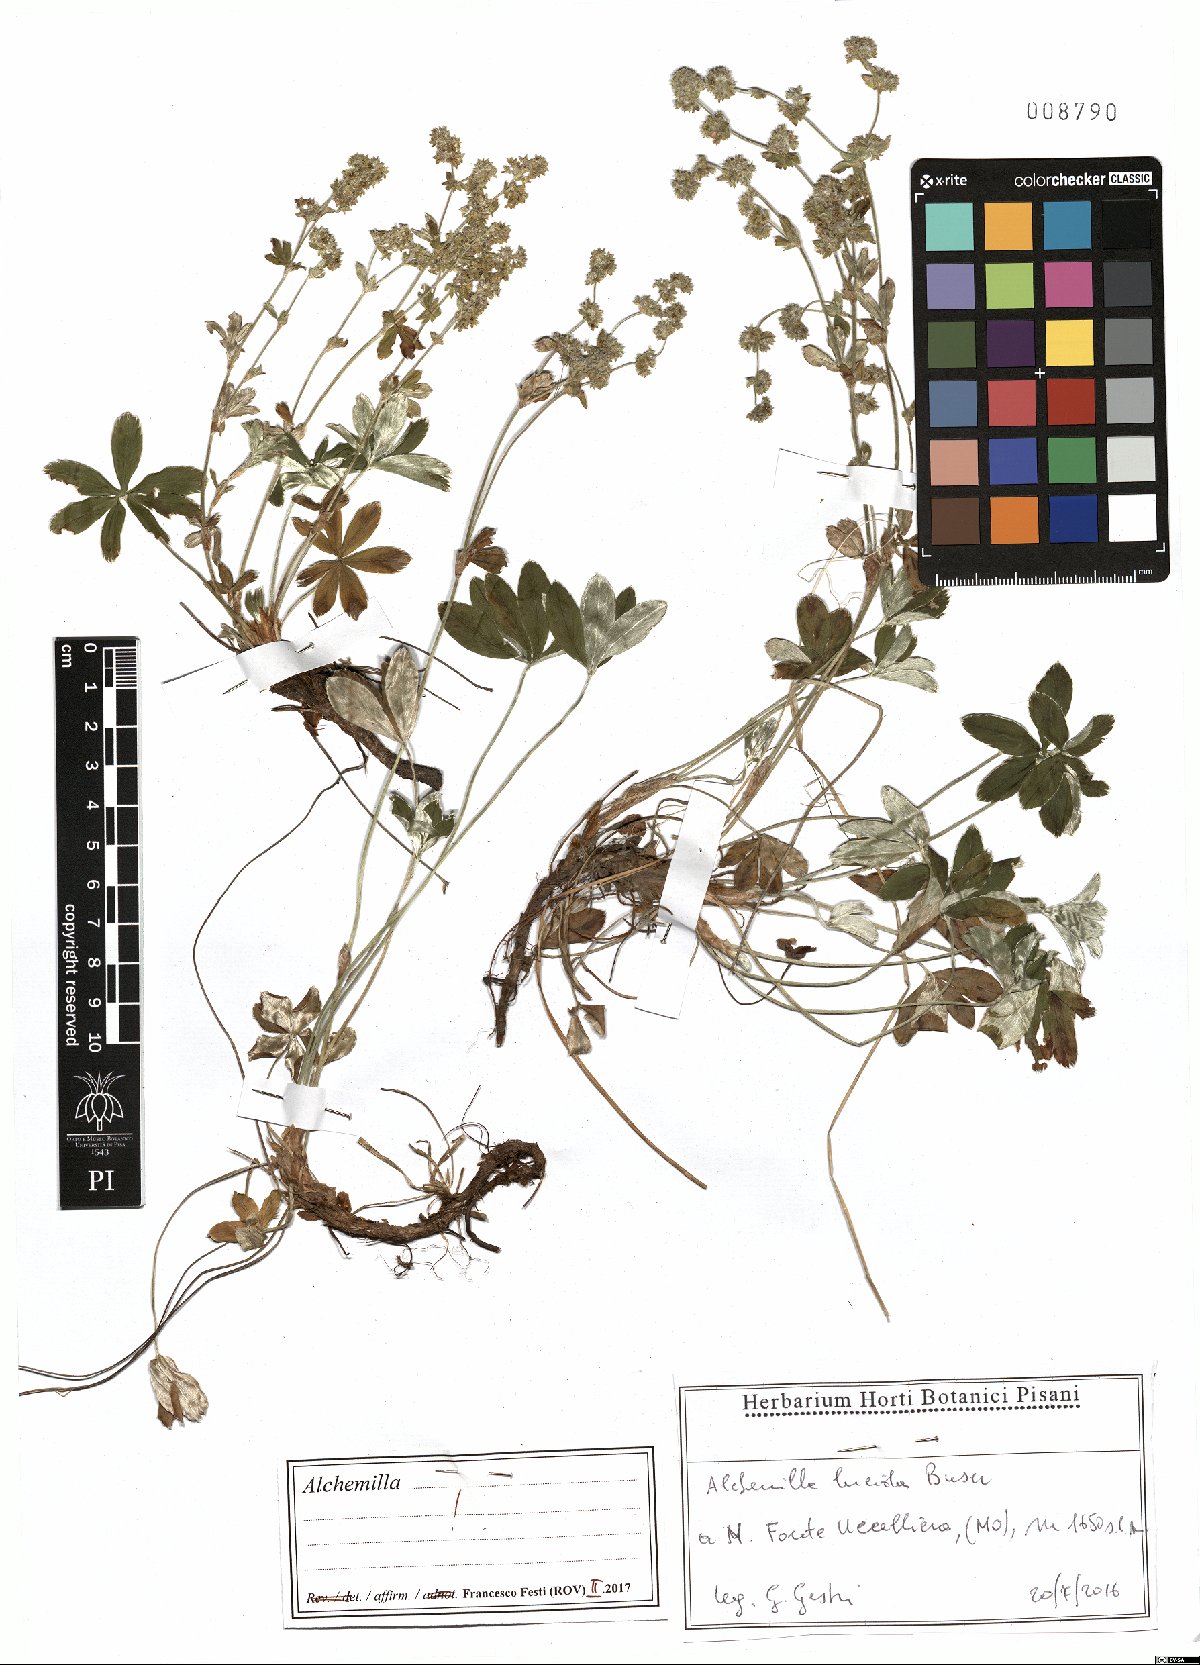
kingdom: Plantae
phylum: Tracheophyta
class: Magnoliopsida
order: Rosales
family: Rosaceae
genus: Alchemilla
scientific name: Alchemilla lucida
